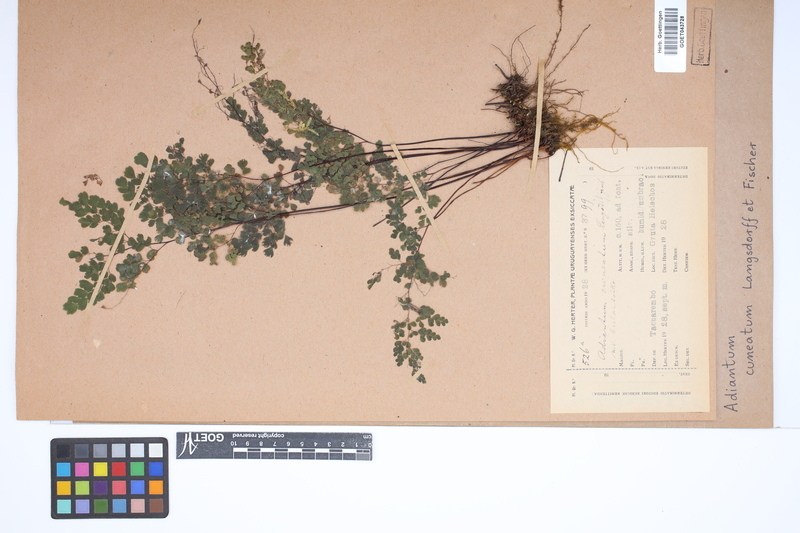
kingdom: Plantae
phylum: Tracheophyta
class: Polypodiopsida
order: Polypodiales
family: Pteridaceae
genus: Adiantum
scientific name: Adiantum raddianum
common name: Delta maidenhair fern
